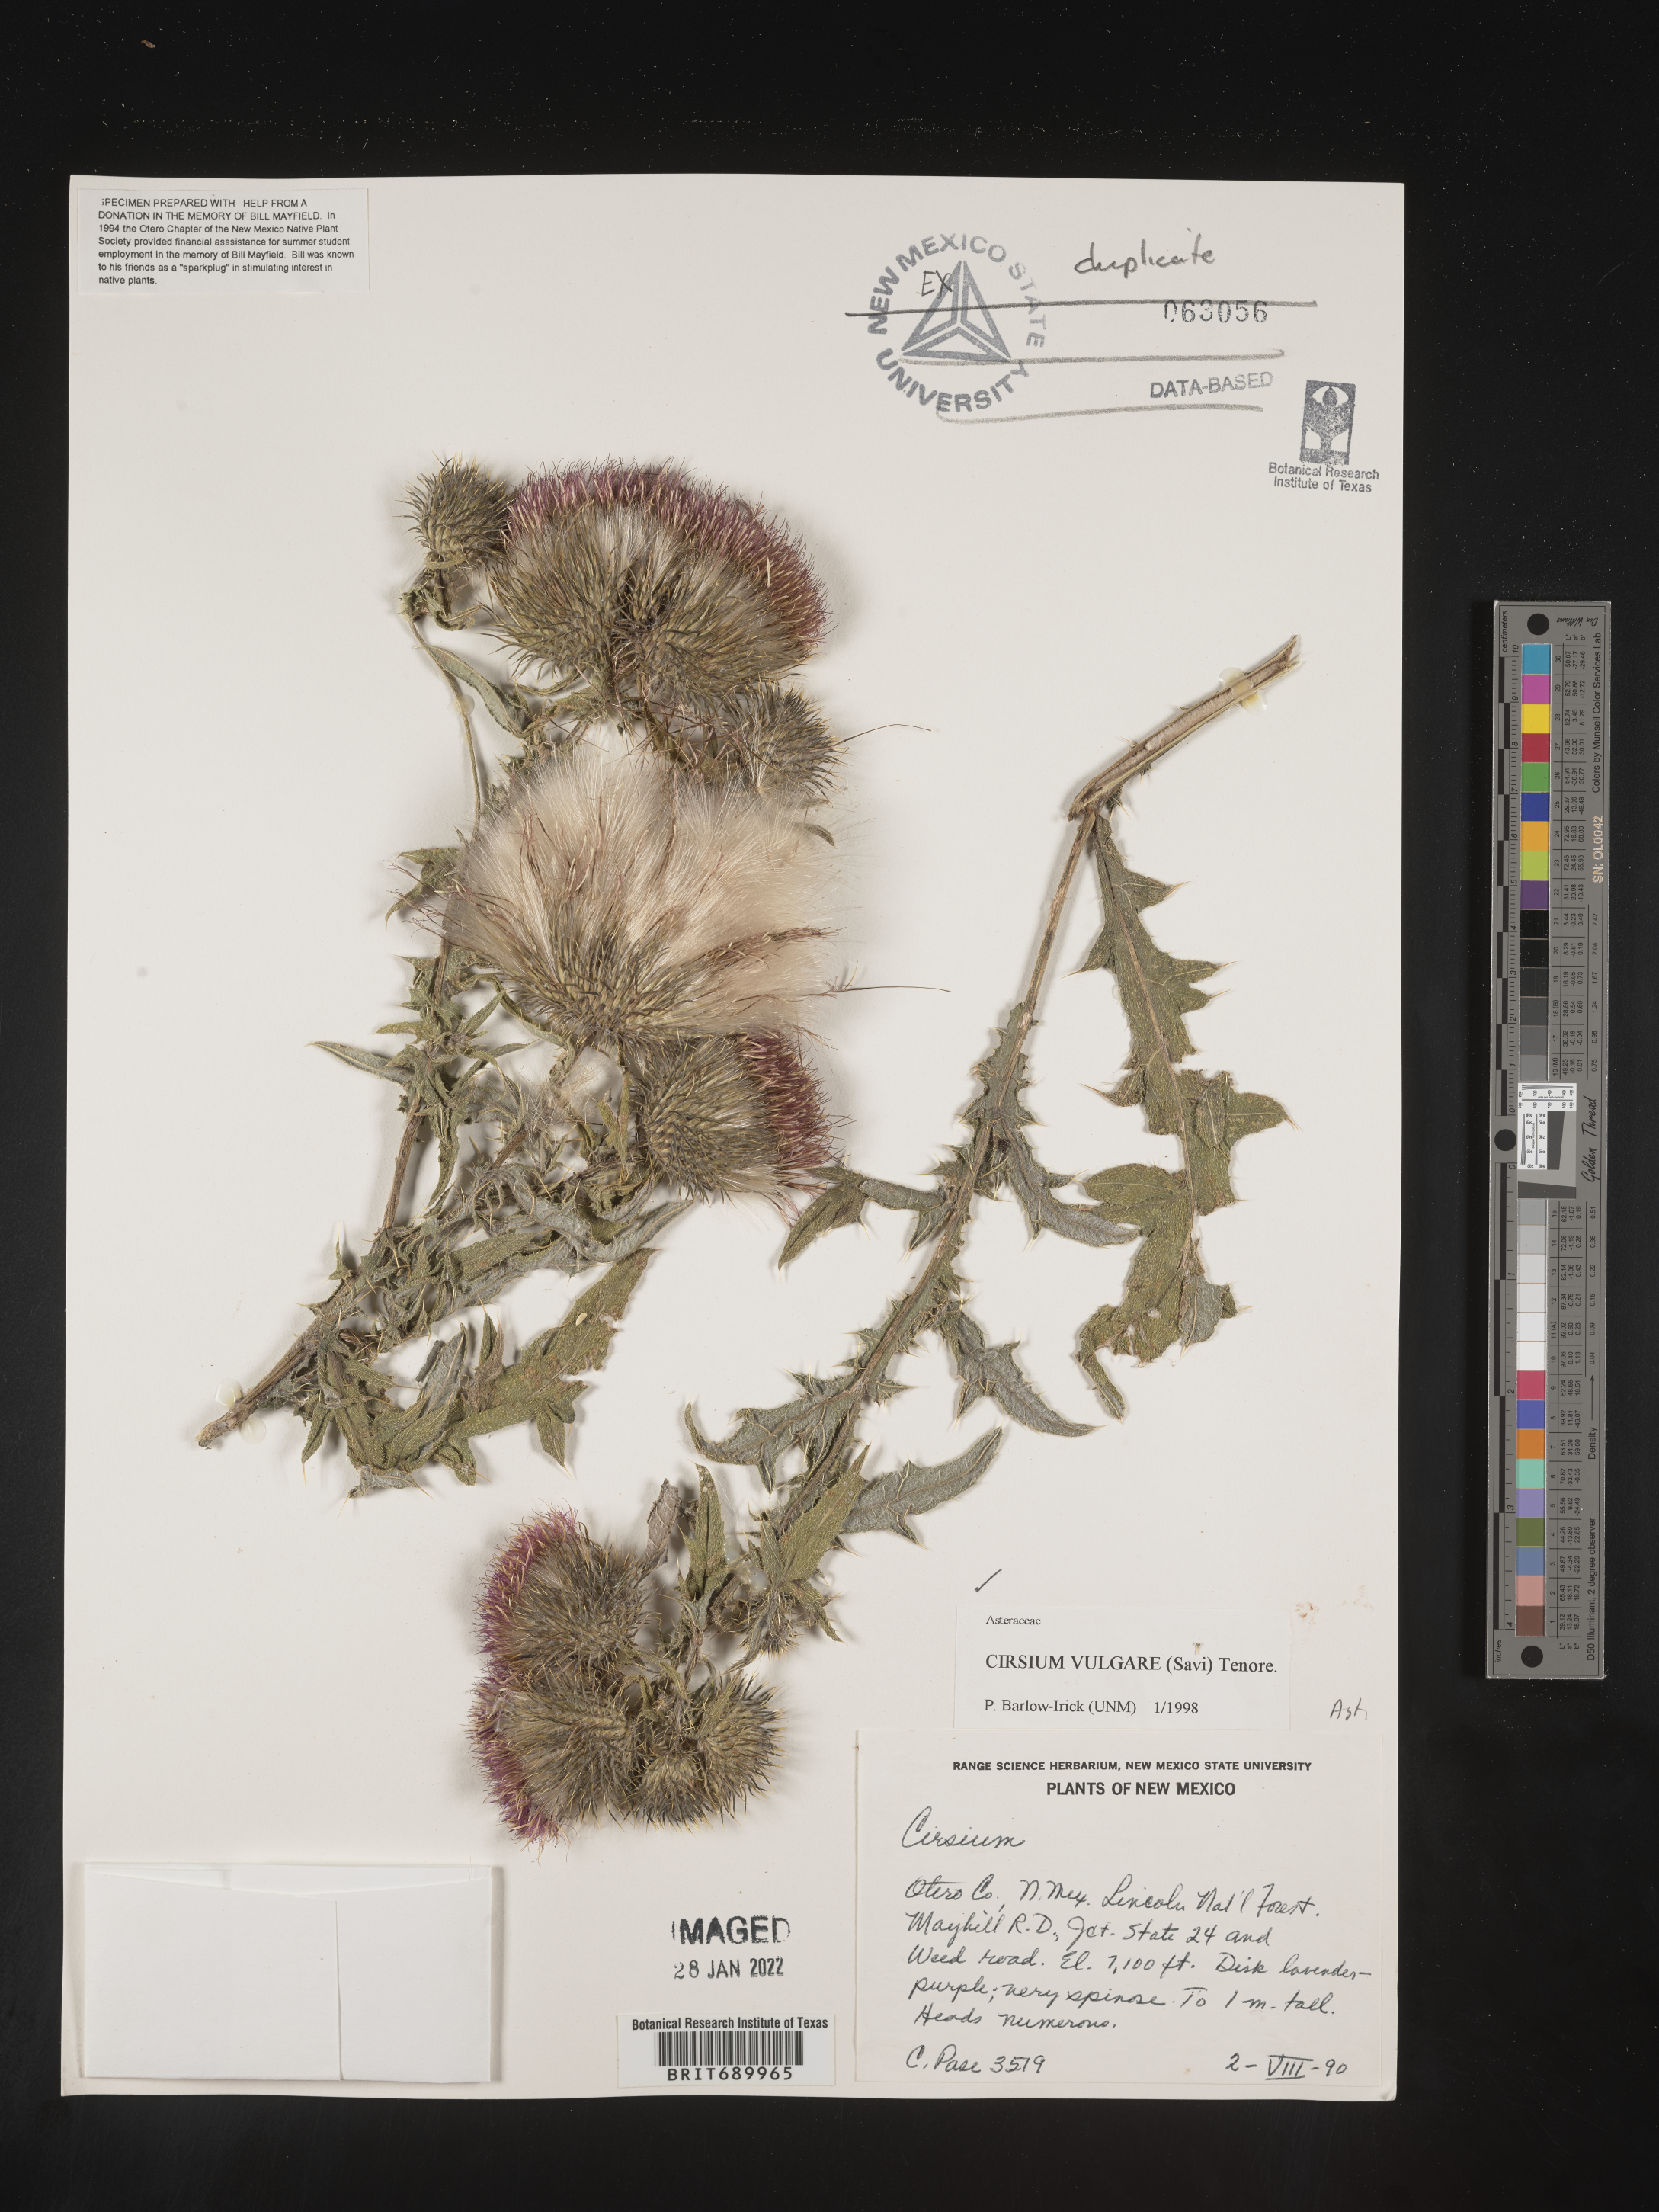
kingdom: Plantae
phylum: Tracheophyta
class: Magnoliopsida
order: Asterales
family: Asteraceae
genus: Cirsium
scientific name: Cirsium vulgare
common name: Bull thistle
